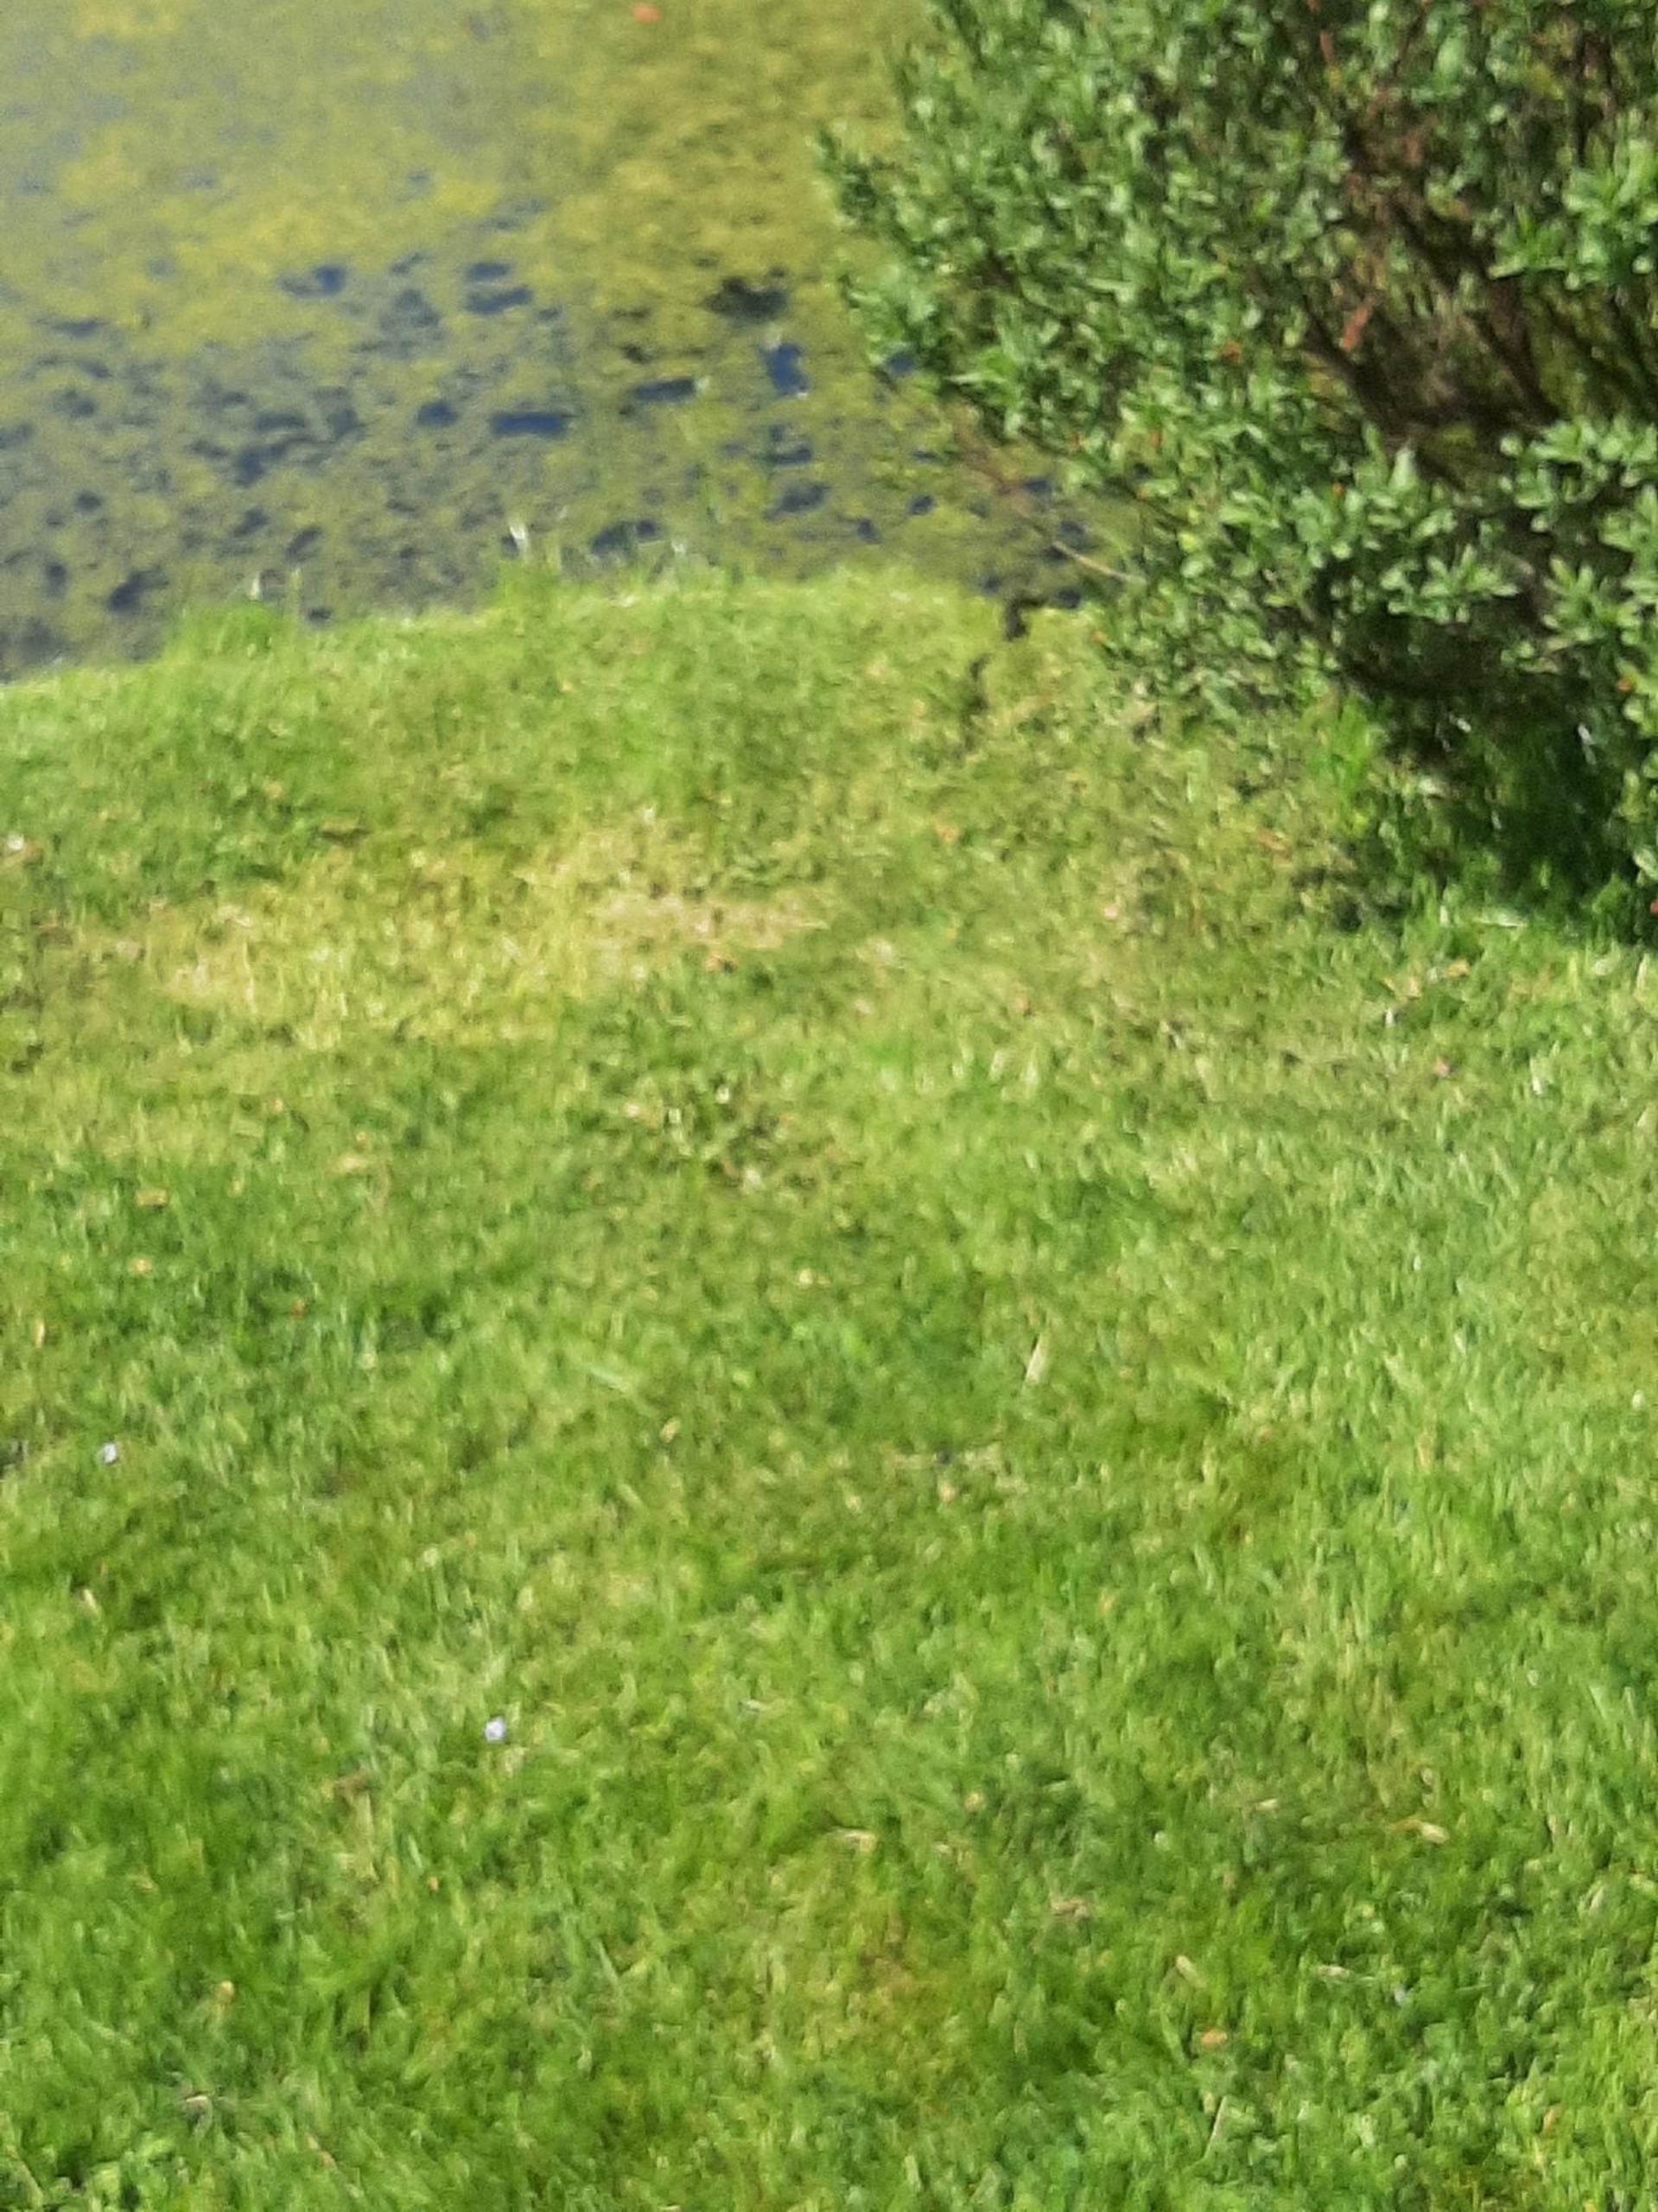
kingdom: Animalia
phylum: Chordata
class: Squamata
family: Colubridae
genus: Natrix
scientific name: Natrix natrix
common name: Snog
